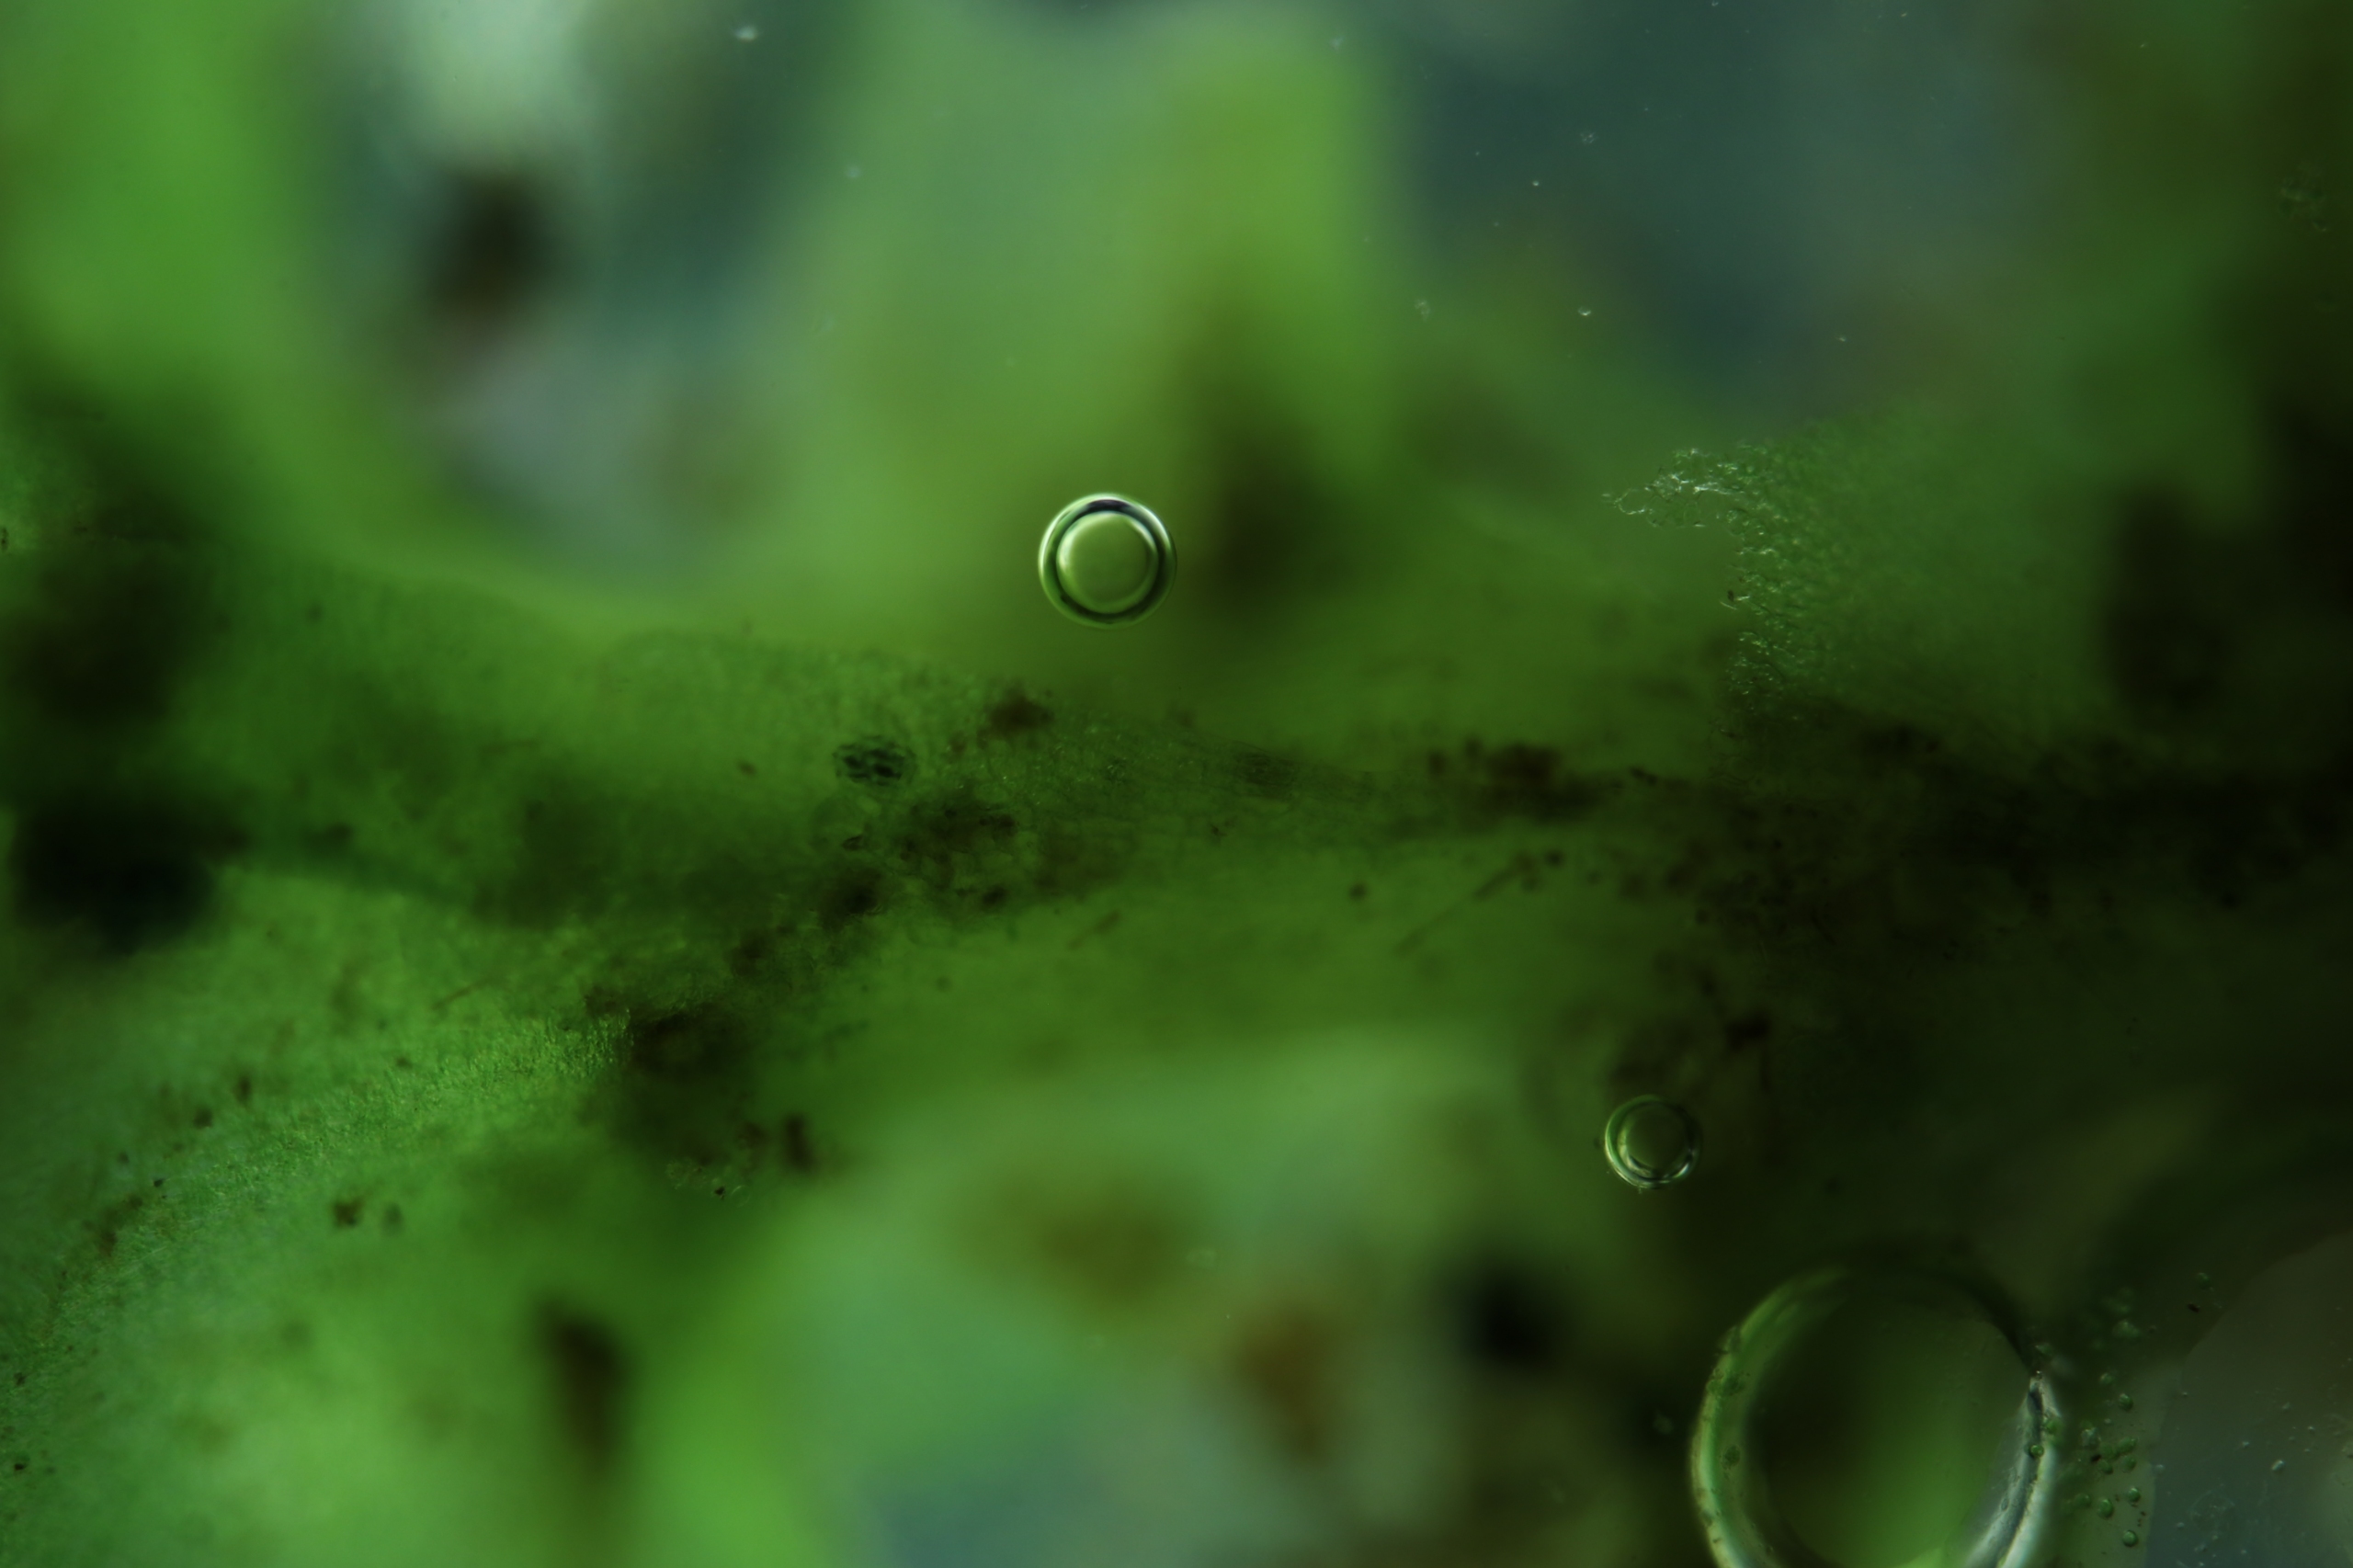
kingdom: Plantae
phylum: Marchantiophyta
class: Jungermanniopsida
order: Jungermanniales
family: Scapaniaceae
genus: Scapania
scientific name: Scapania undulata
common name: Bæk-tveblad
